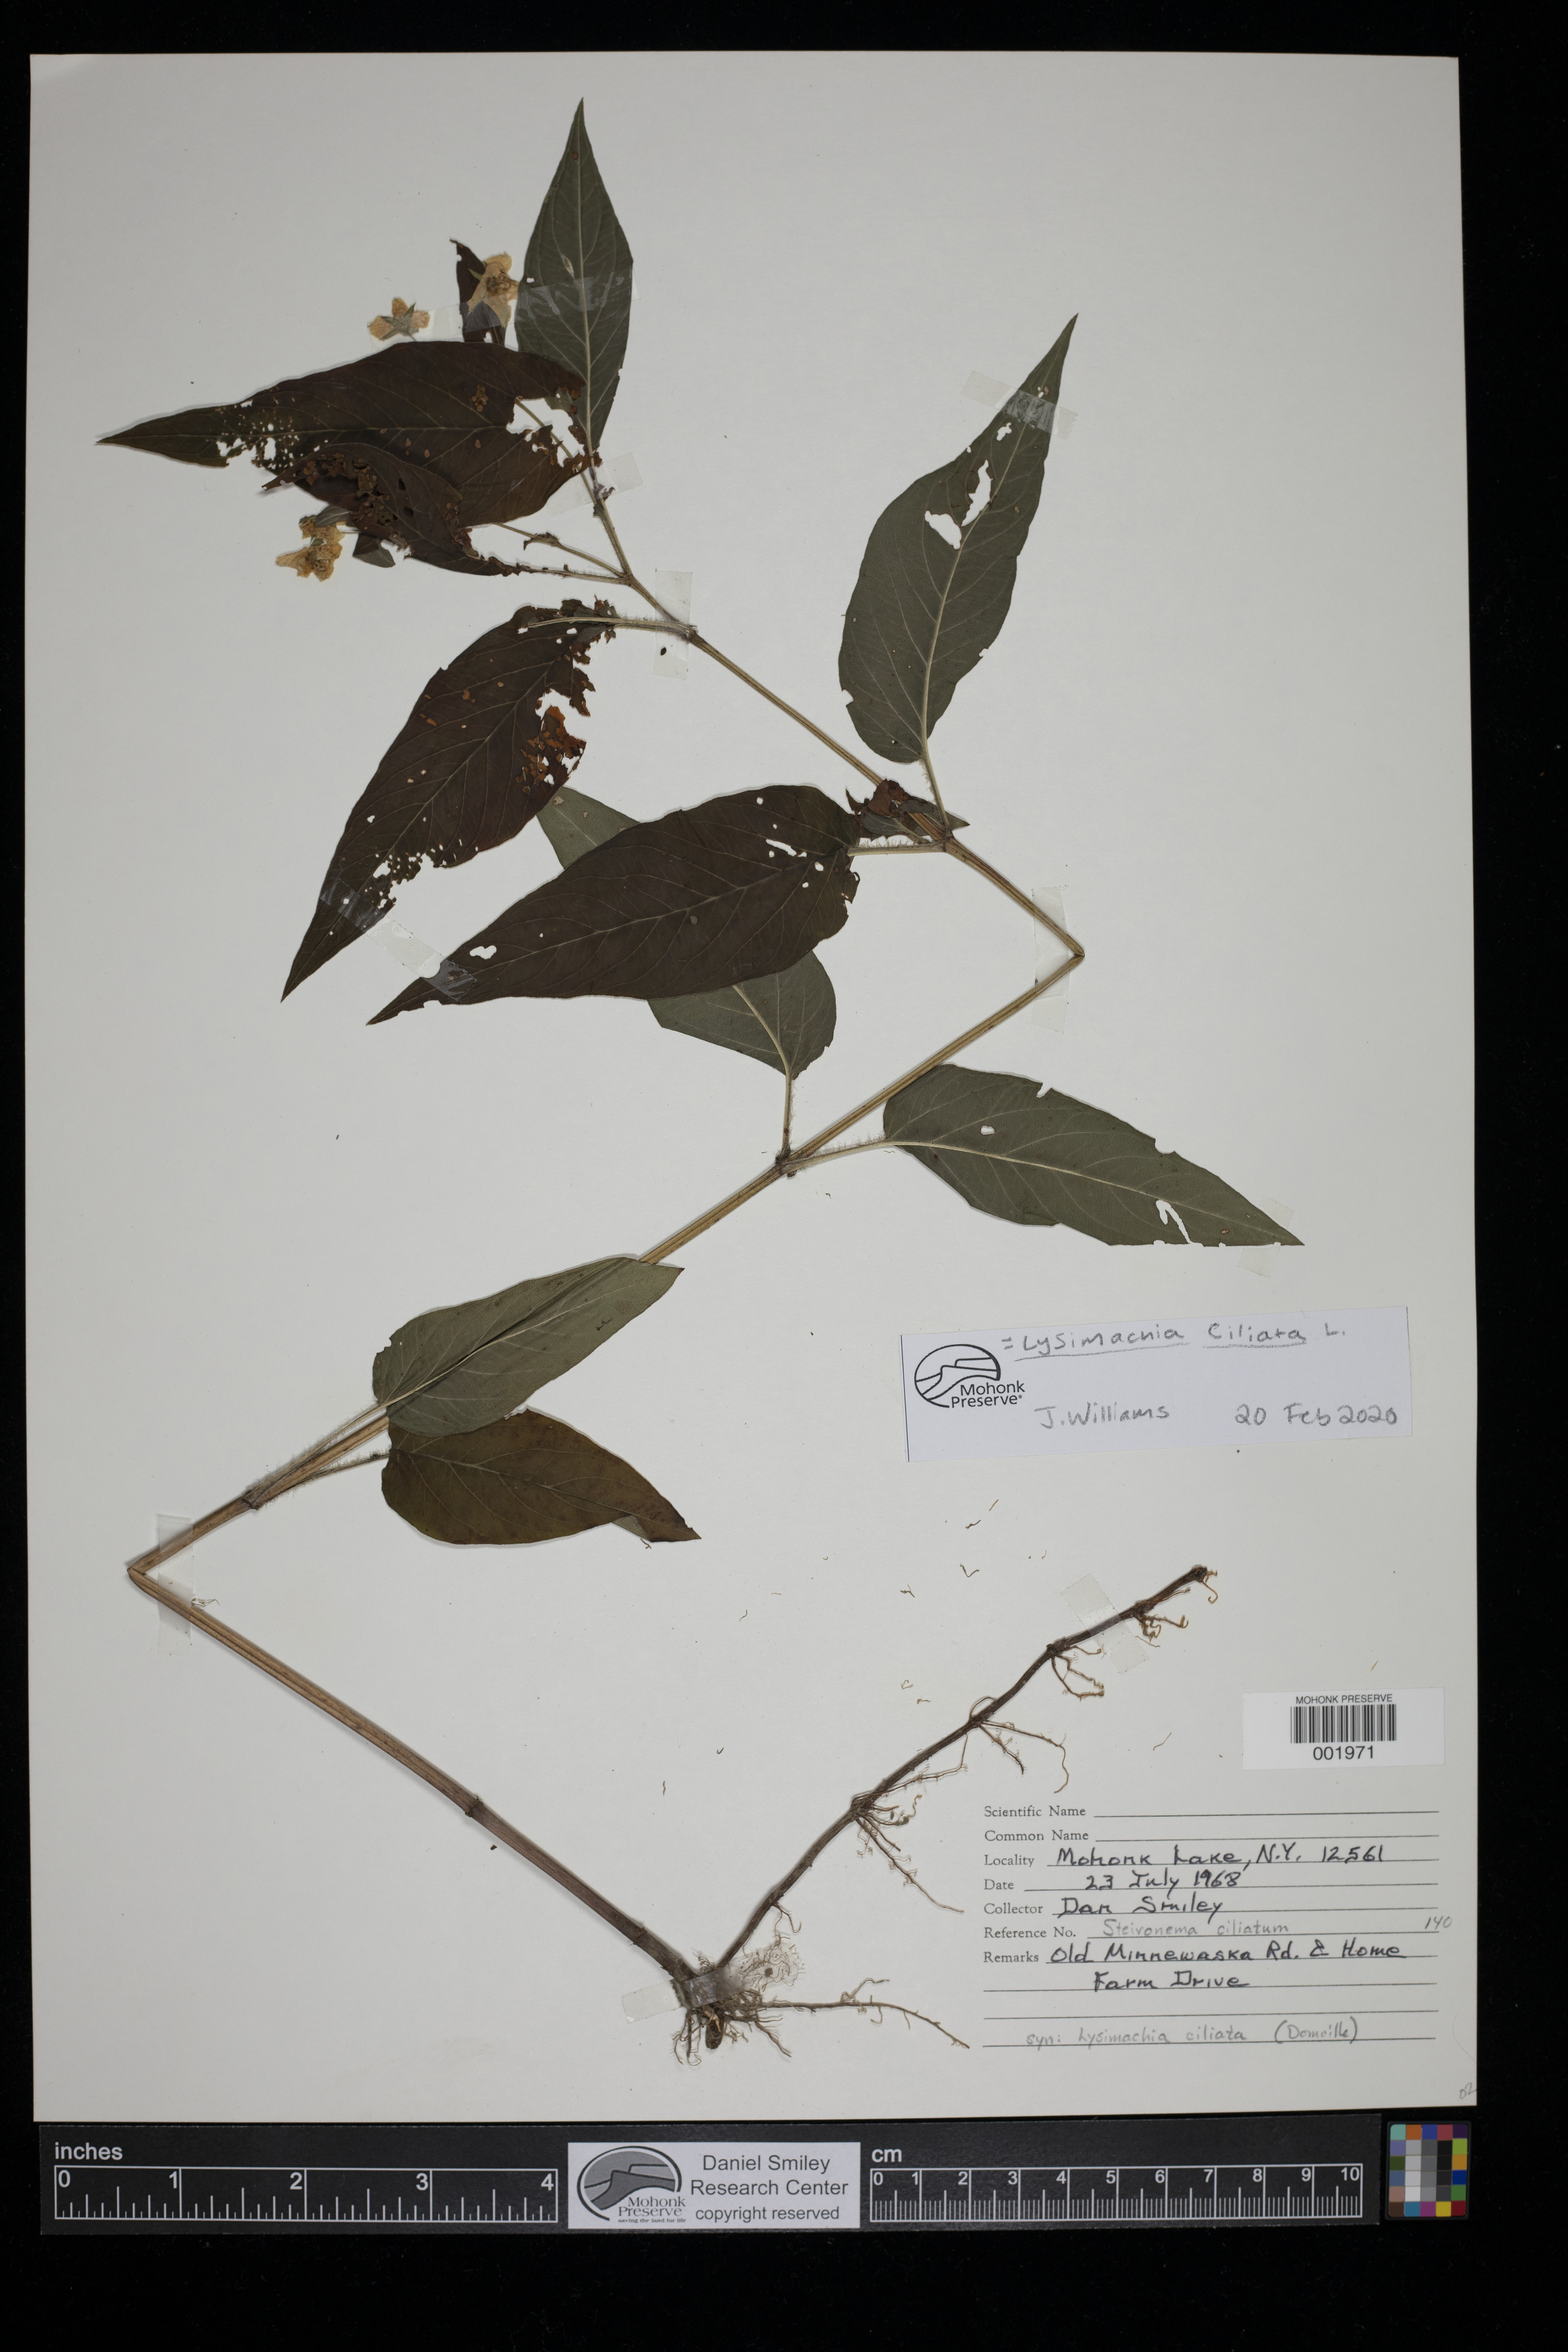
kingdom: Plantae
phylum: Tracheophyta
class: Magnoliopsida
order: Ericales
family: Primulaceae
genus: Lysimachia
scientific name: Lysimachia ciliata
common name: Fringed loosestrife
